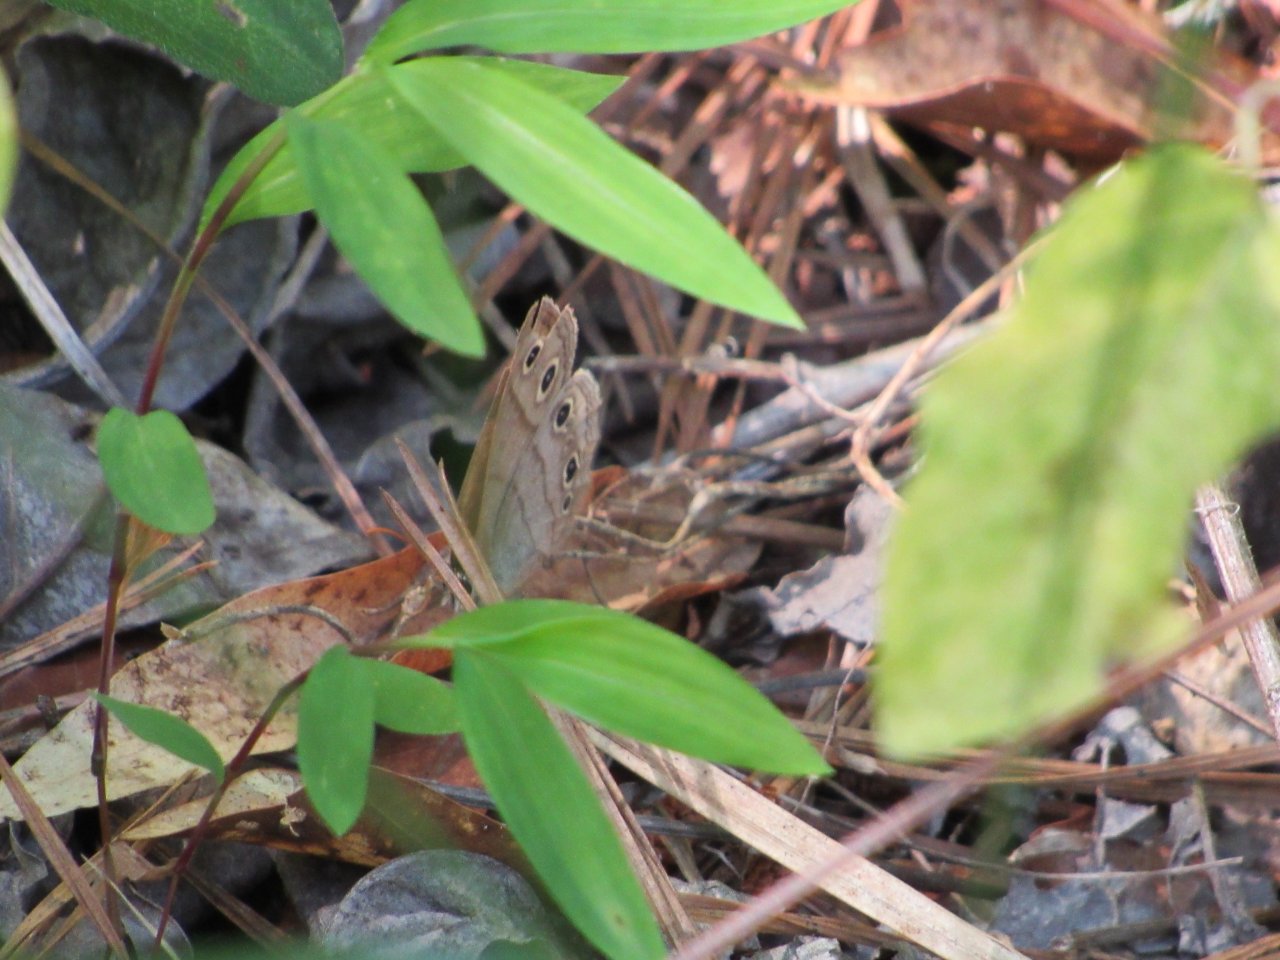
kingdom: Animalia
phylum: Arthropoda
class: Insecta
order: Lepidoptera
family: Nymphalidae
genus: Euptychia
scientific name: Euptychia cymela
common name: Little Wood Satyr
